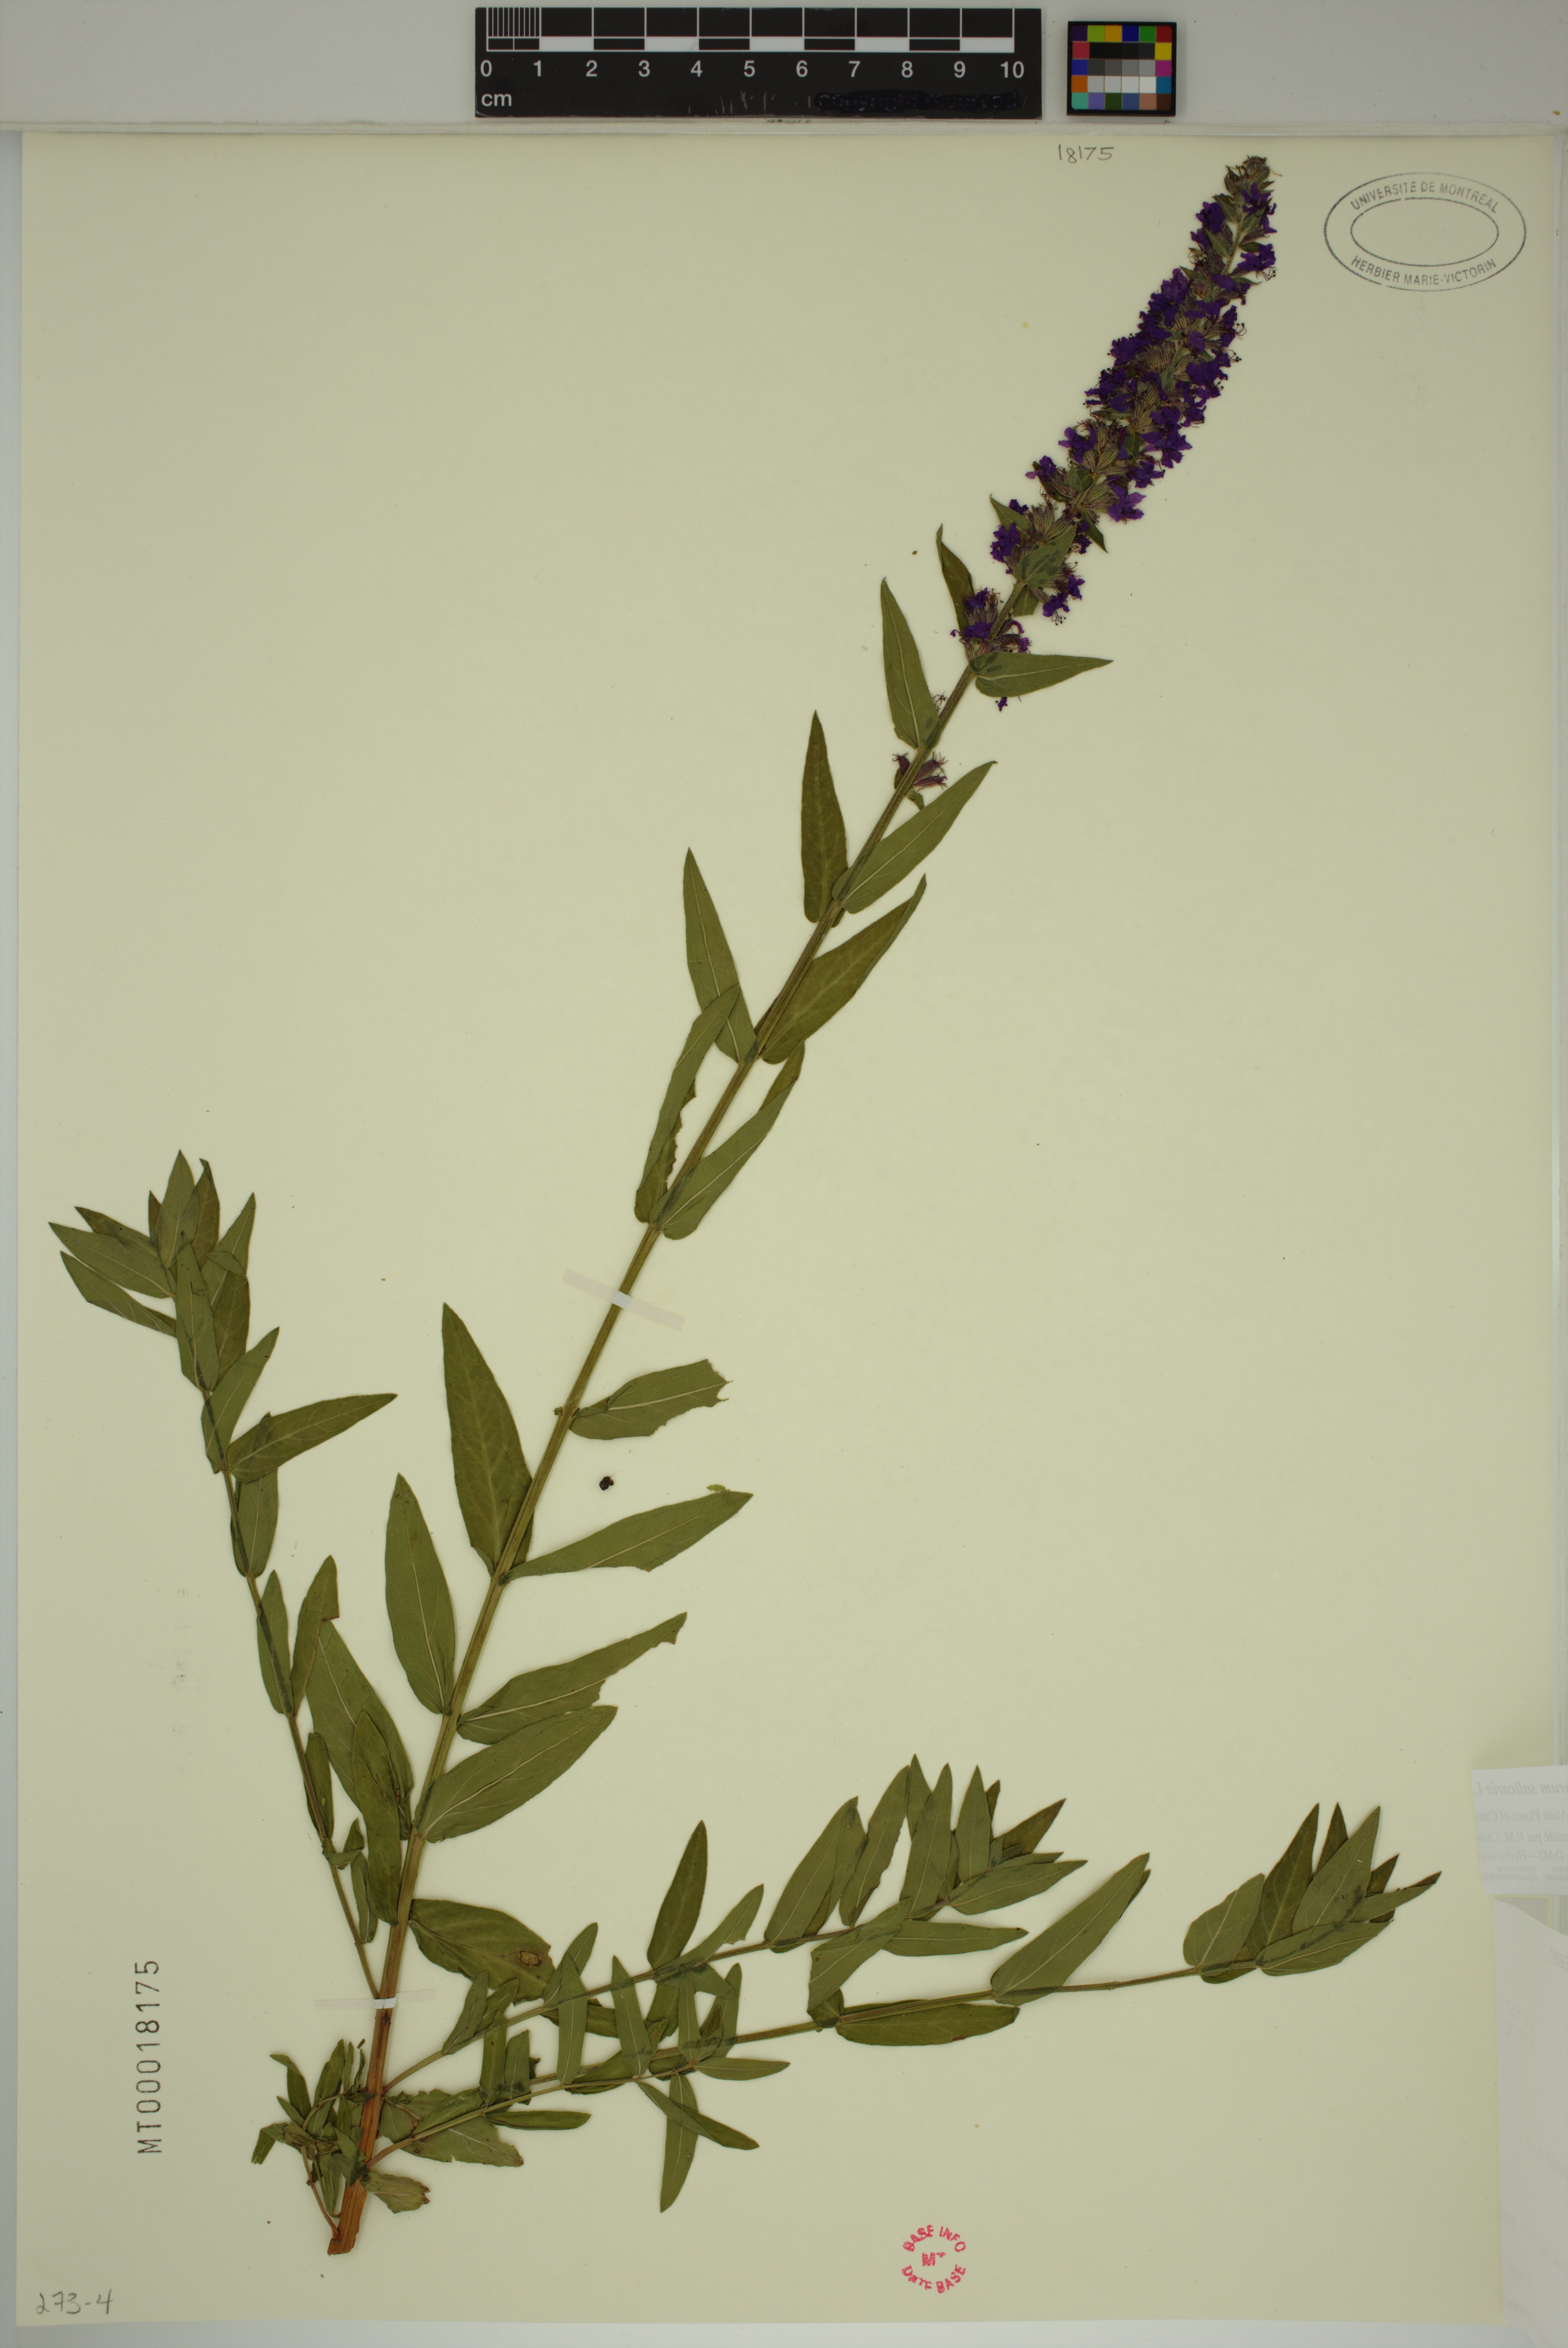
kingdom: Plantae
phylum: Tracheophyta
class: Magnoliopsida
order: Myrtales
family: Lythraceae
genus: Lythrum
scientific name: Lythrum salicaria
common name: Purple loosestrife
